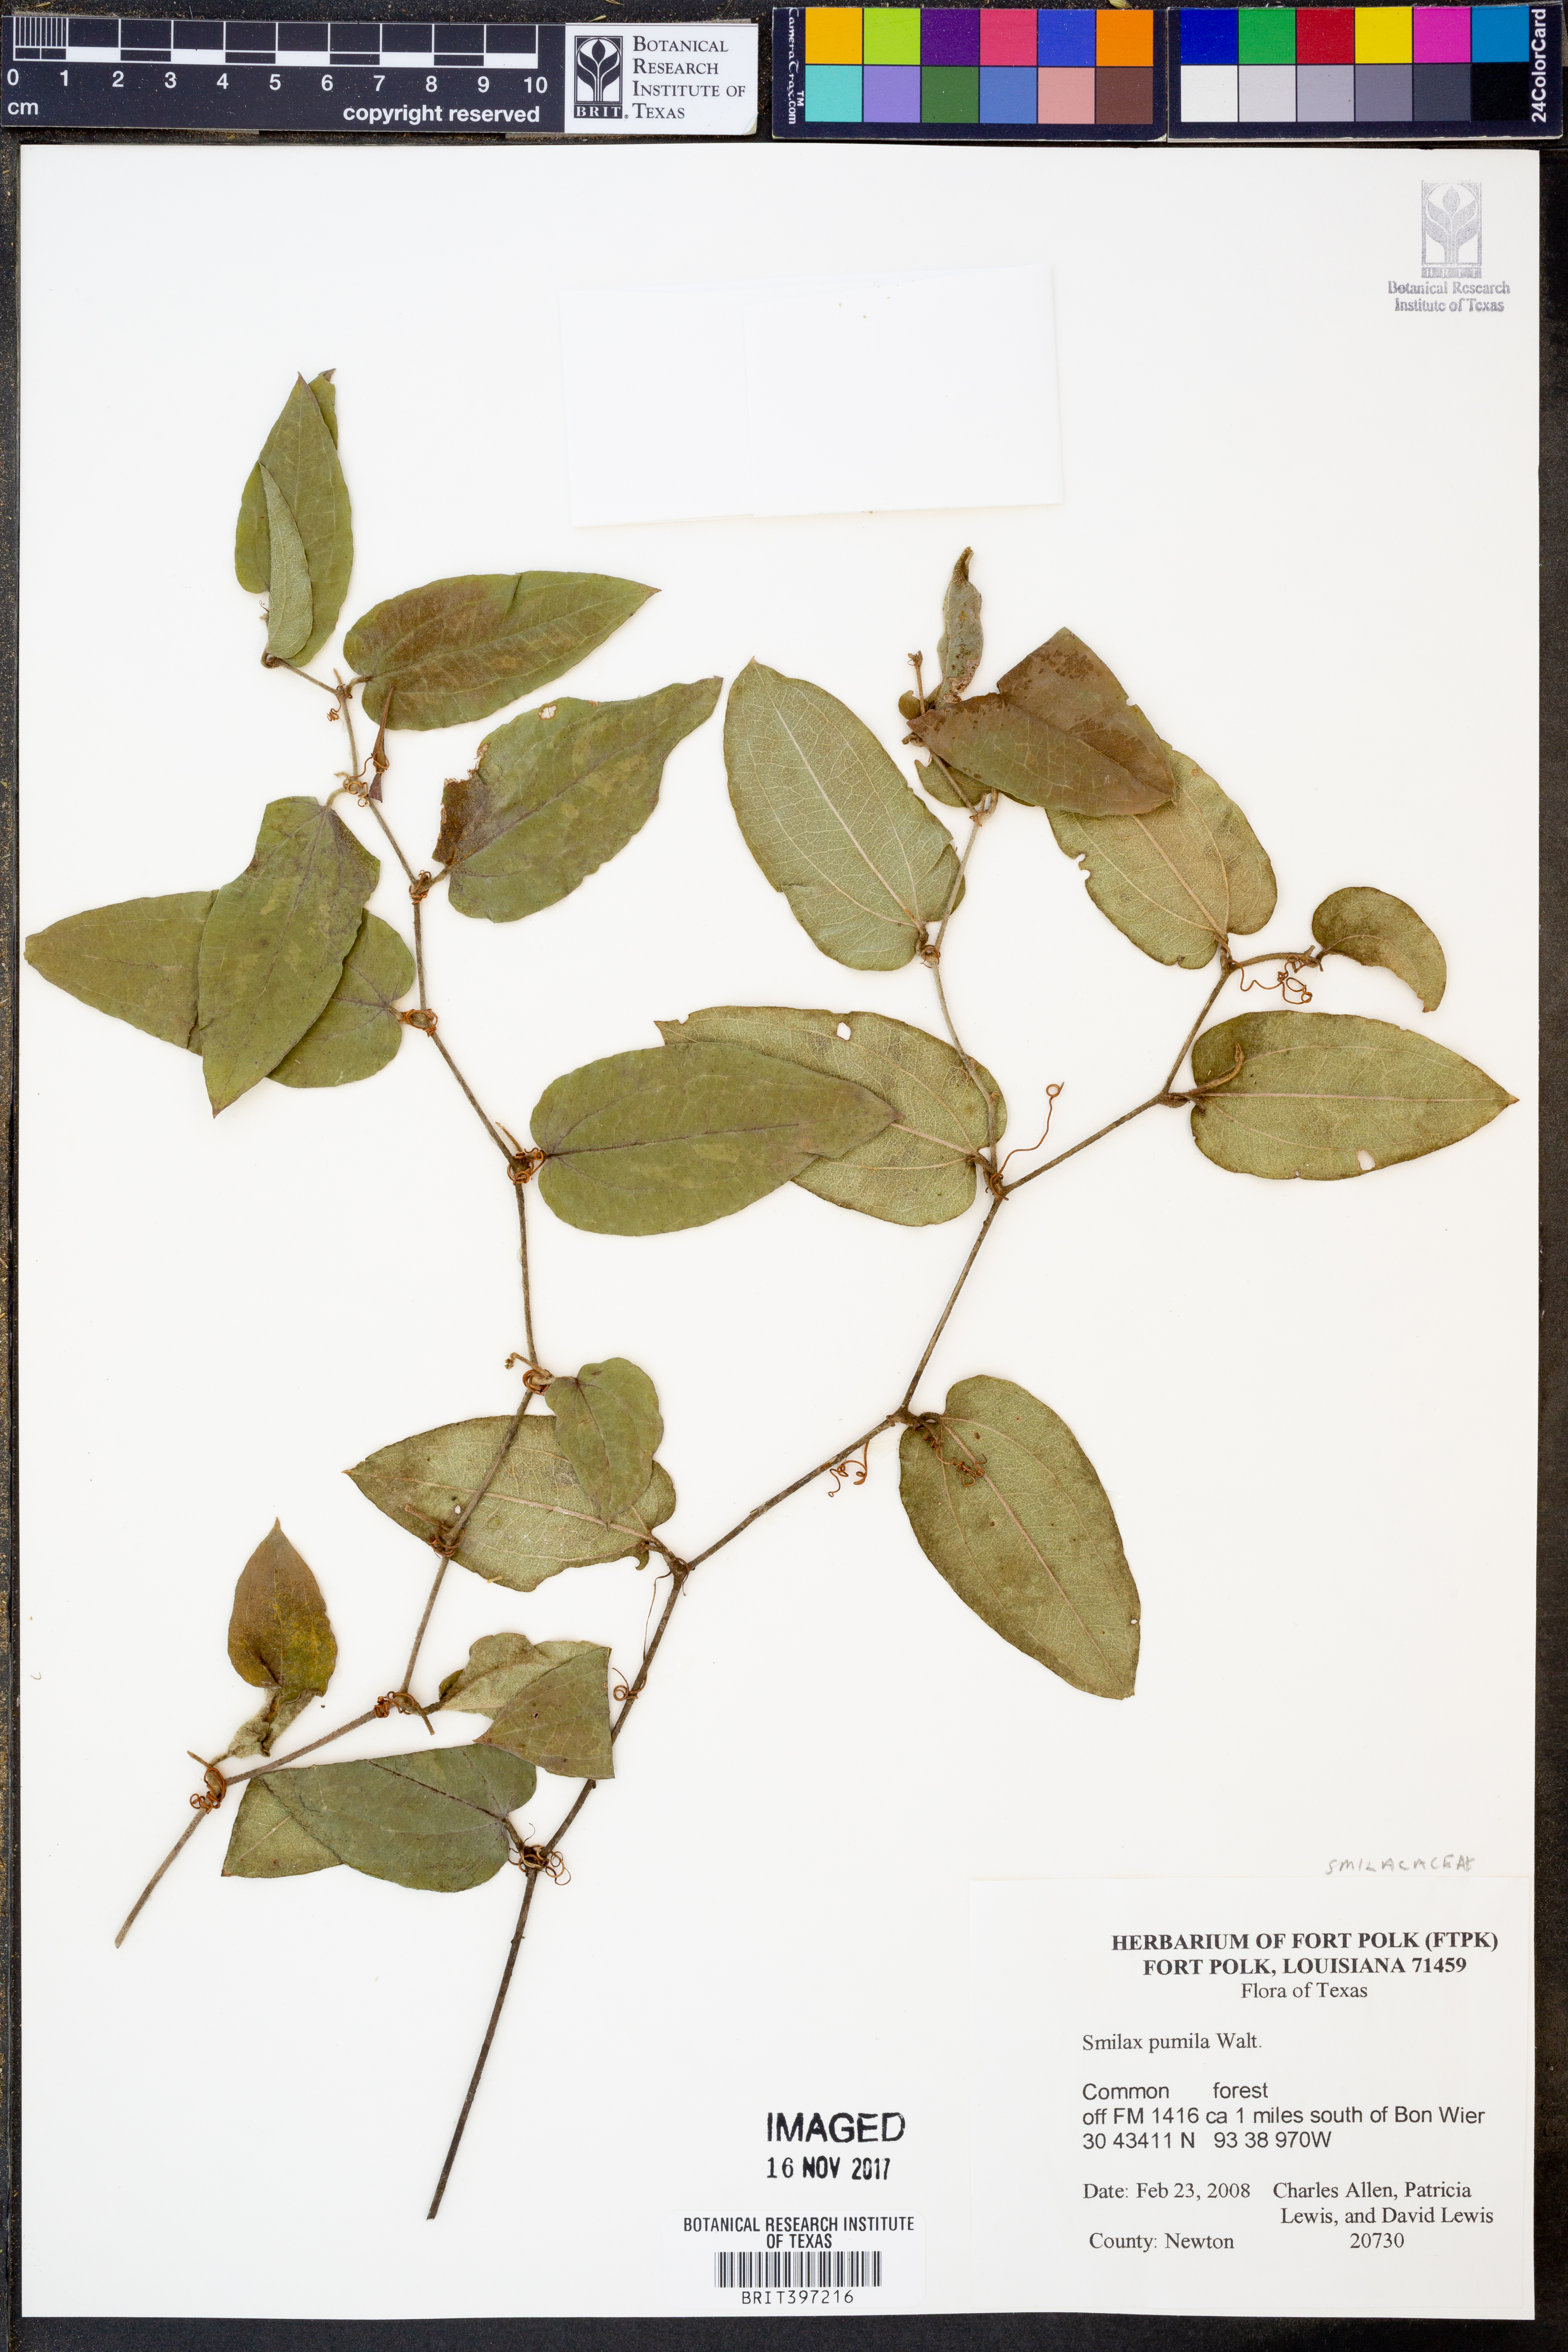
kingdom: Plantae
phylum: Tracheophyta
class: Liliopsida
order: Liliales
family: Smilacaceae
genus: Smilax
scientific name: Smilax pumila
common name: Sarsaparilla-vine
